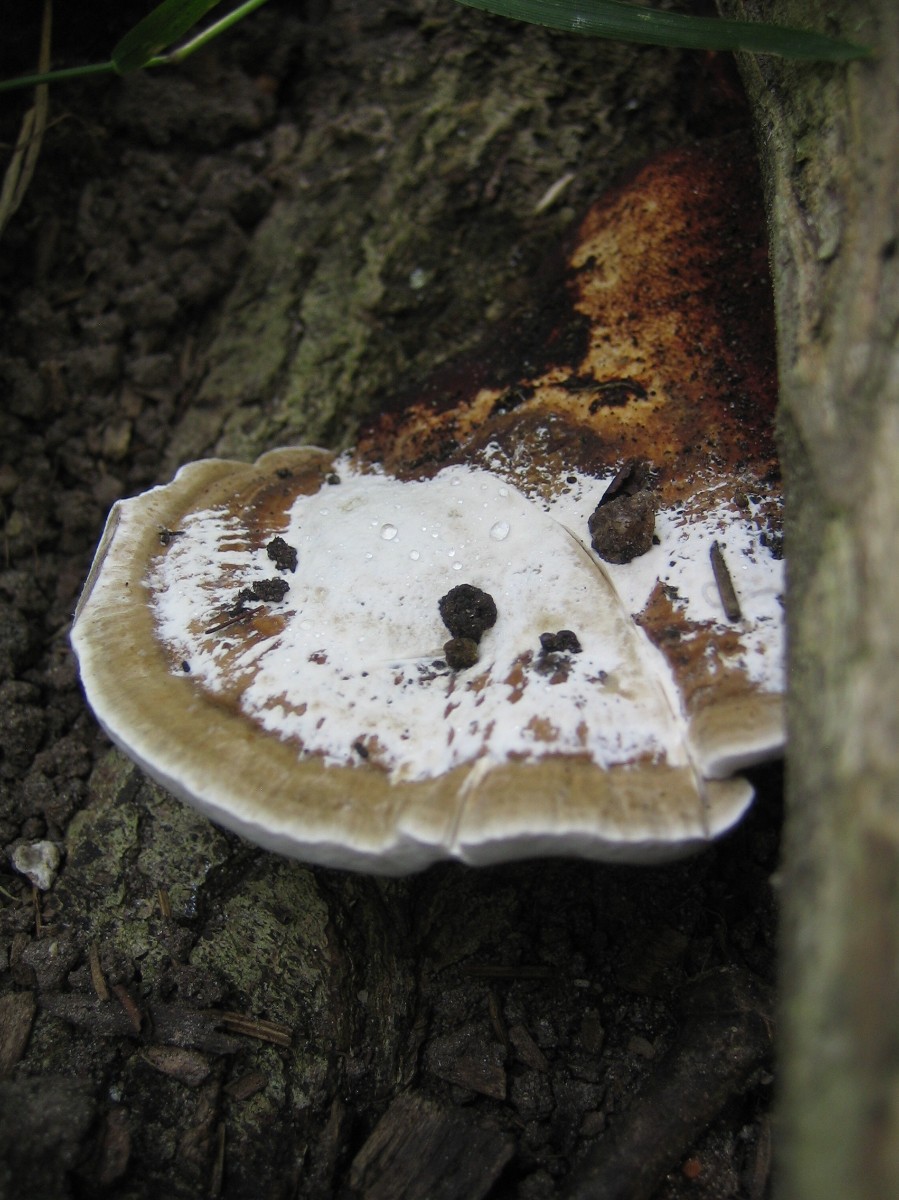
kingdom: Fungi
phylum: Basidiomycota
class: Agaricomycetes
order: Polyporales
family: Polyporaceae
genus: Daedaleopsis
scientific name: Daedaleopsis confragosa
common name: rødmende læderporesvamp
